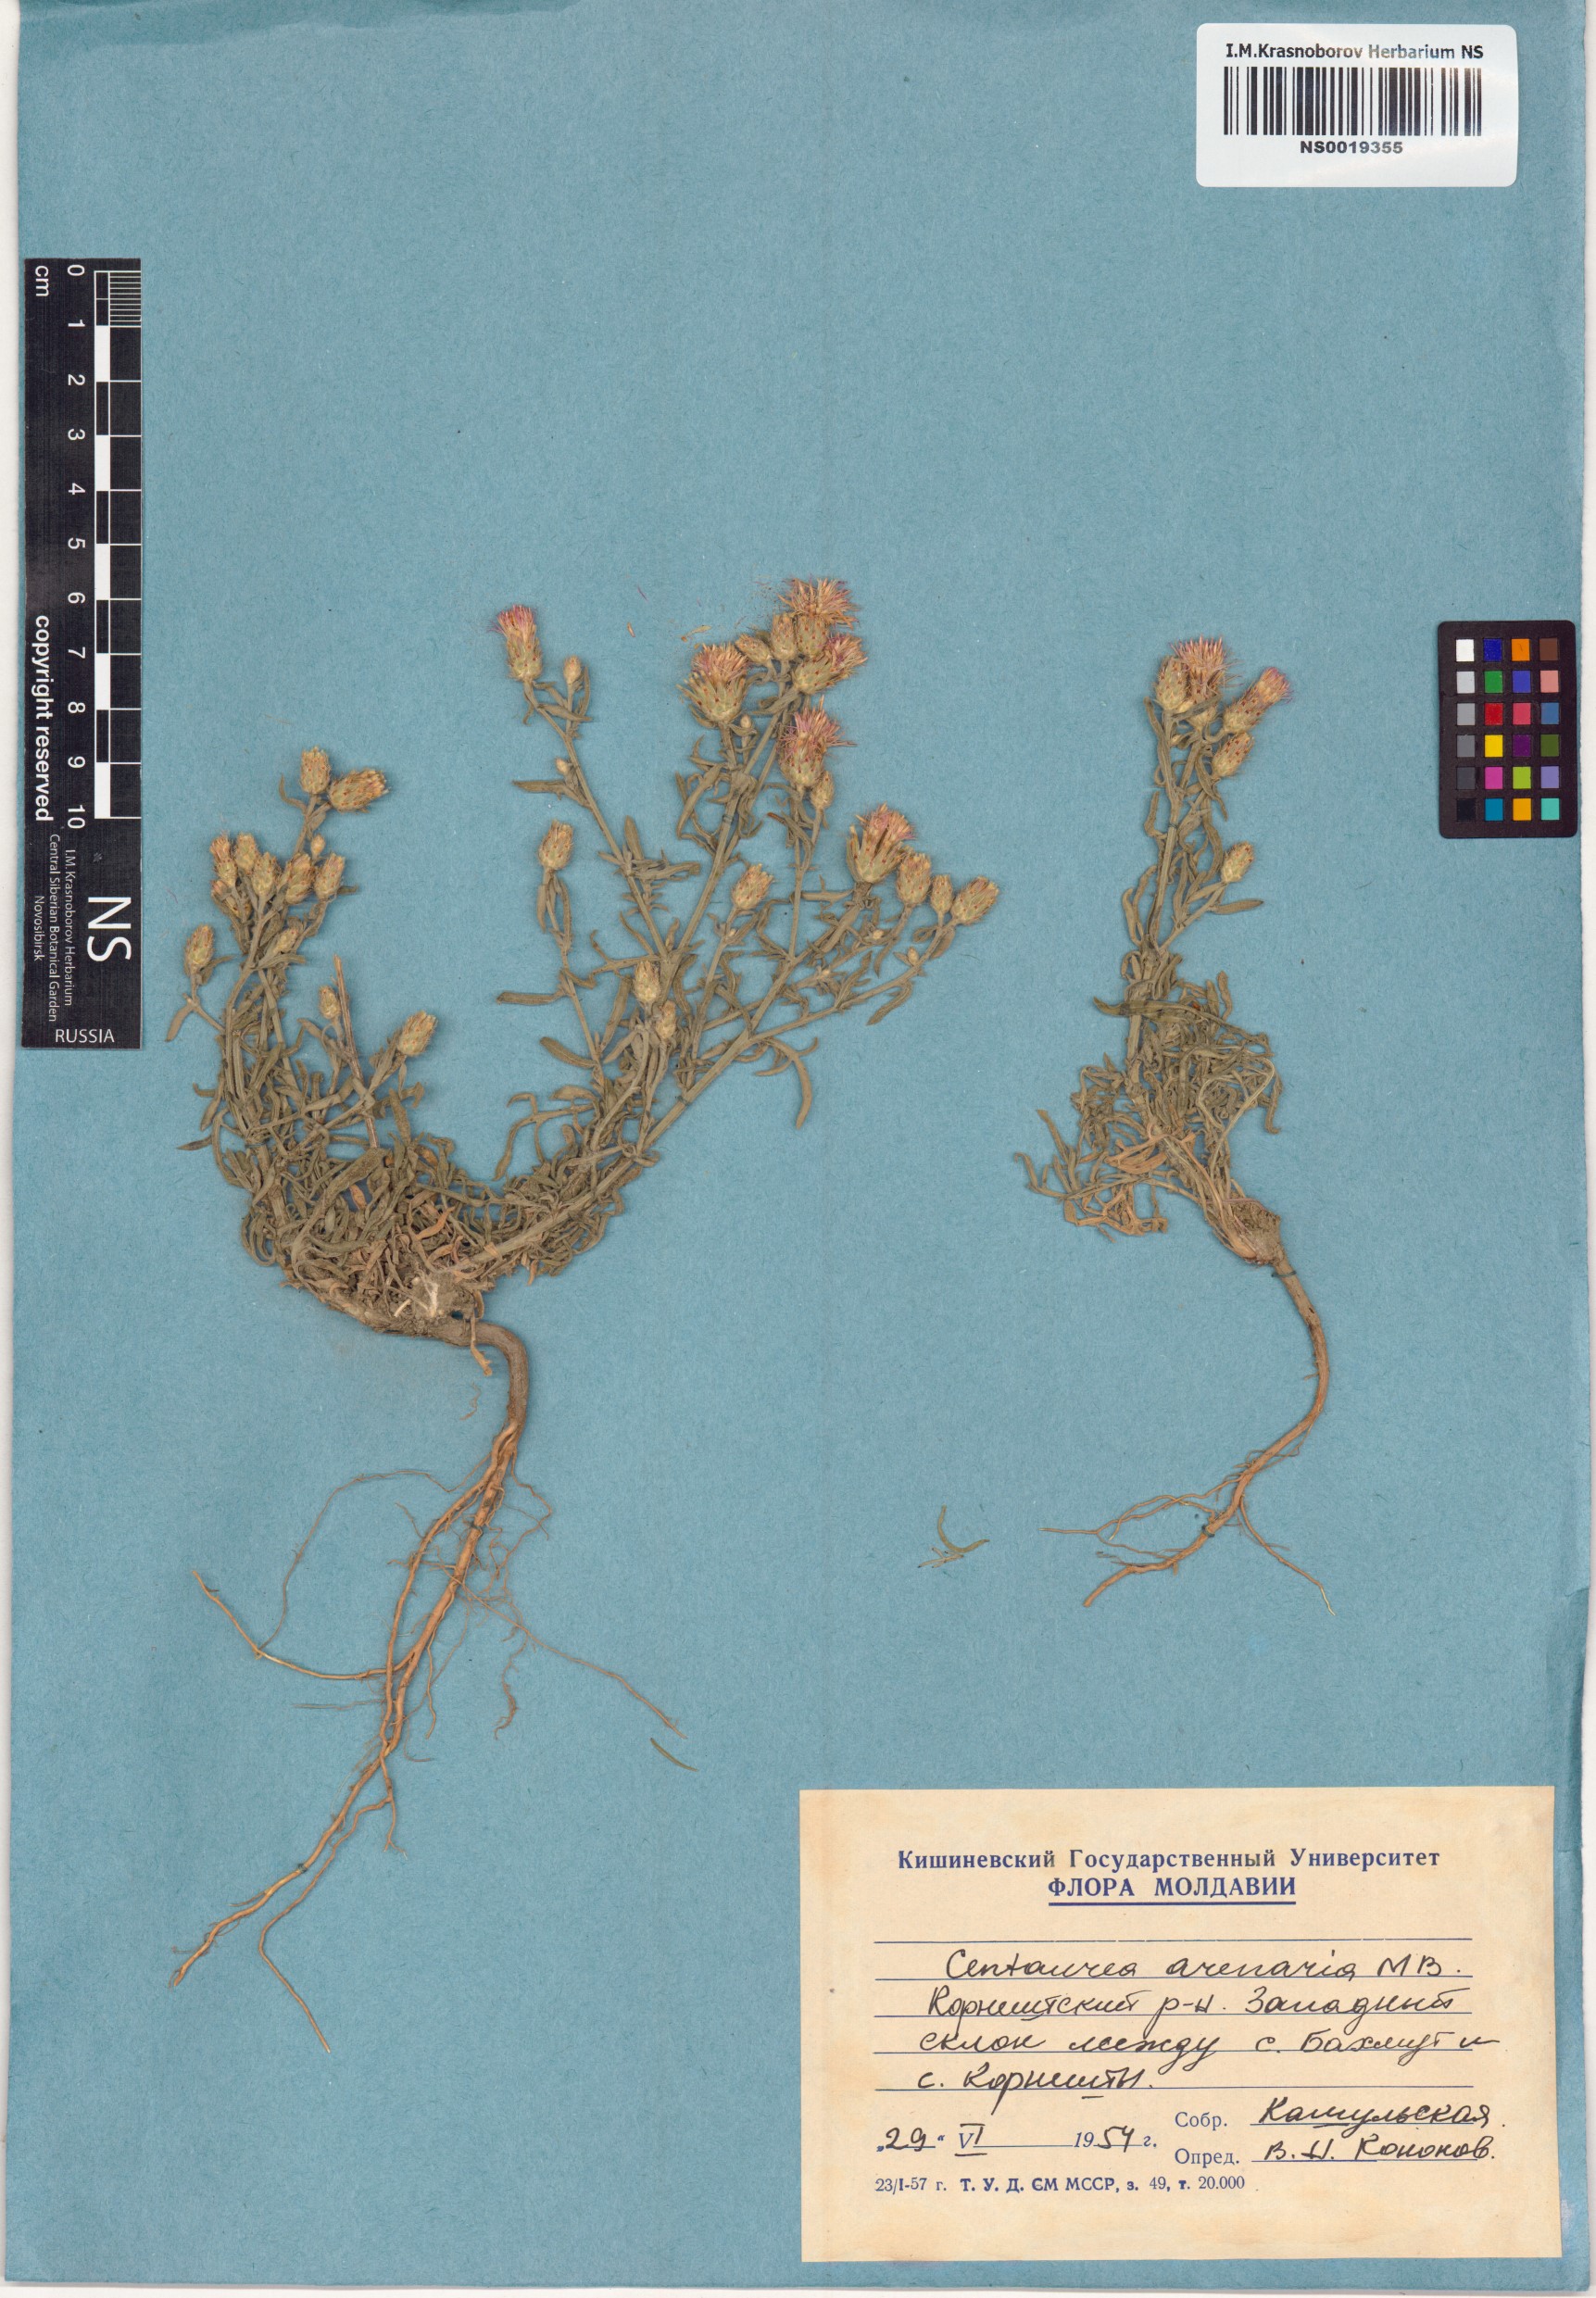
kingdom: Plantae
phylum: Tracheophyta
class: Magnoliopsida
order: Asterales
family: Asteraceae
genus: Centaurea
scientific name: Centaurea arenaria
